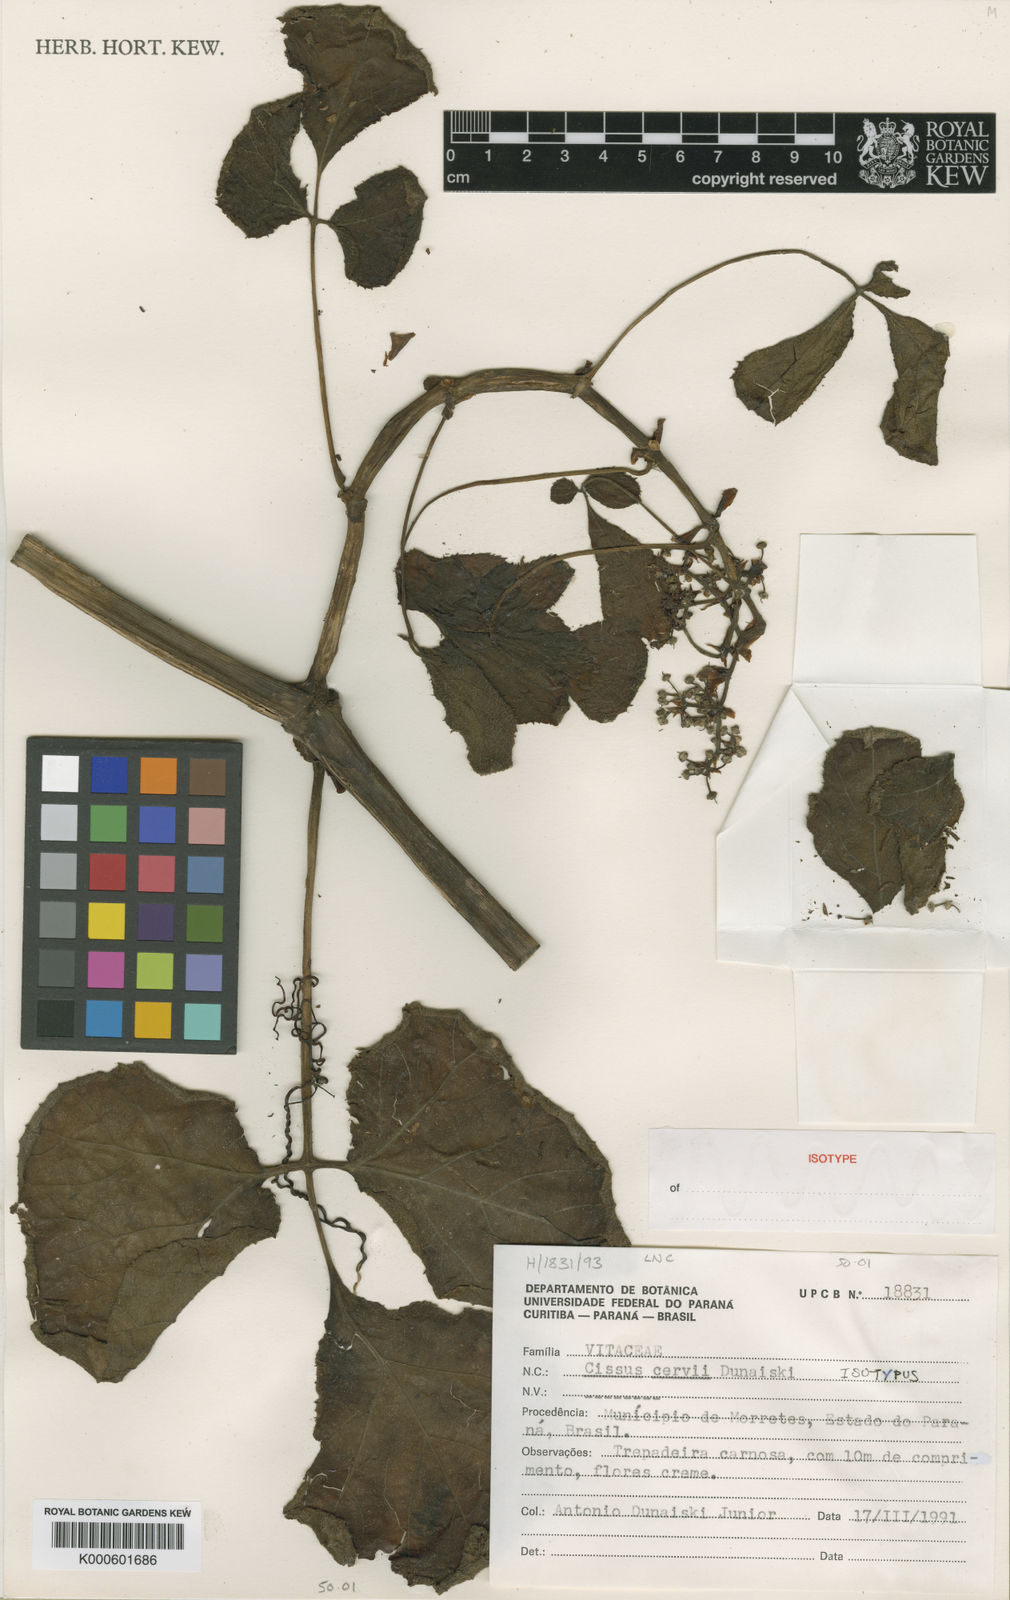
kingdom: Plantae
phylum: Tracheophyta
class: Magnoliopsida
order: Vitales
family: Vitaceae
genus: Cissus
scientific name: Cissus
